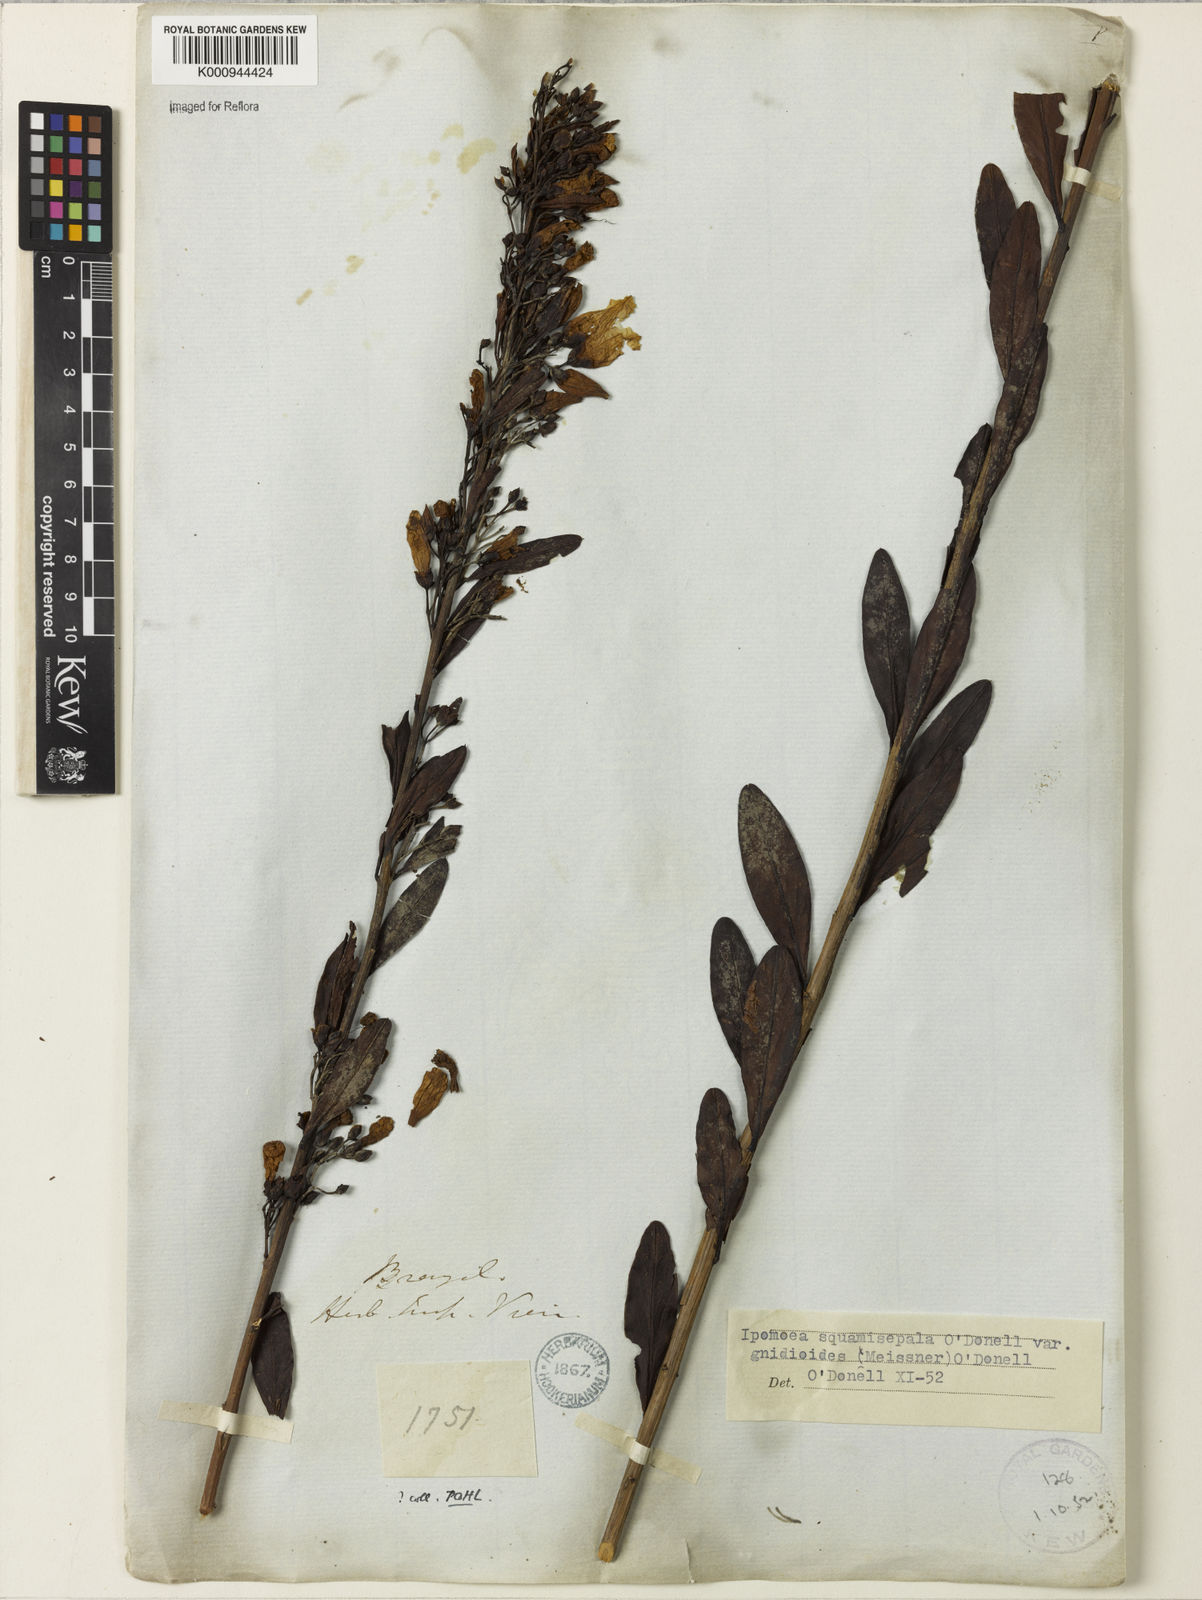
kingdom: Plantae
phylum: Tracheophyta
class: Magnoliopsida
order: Solanales
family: Convolvulaceae
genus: Ipomoea
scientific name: Ipomoea squamisepala
